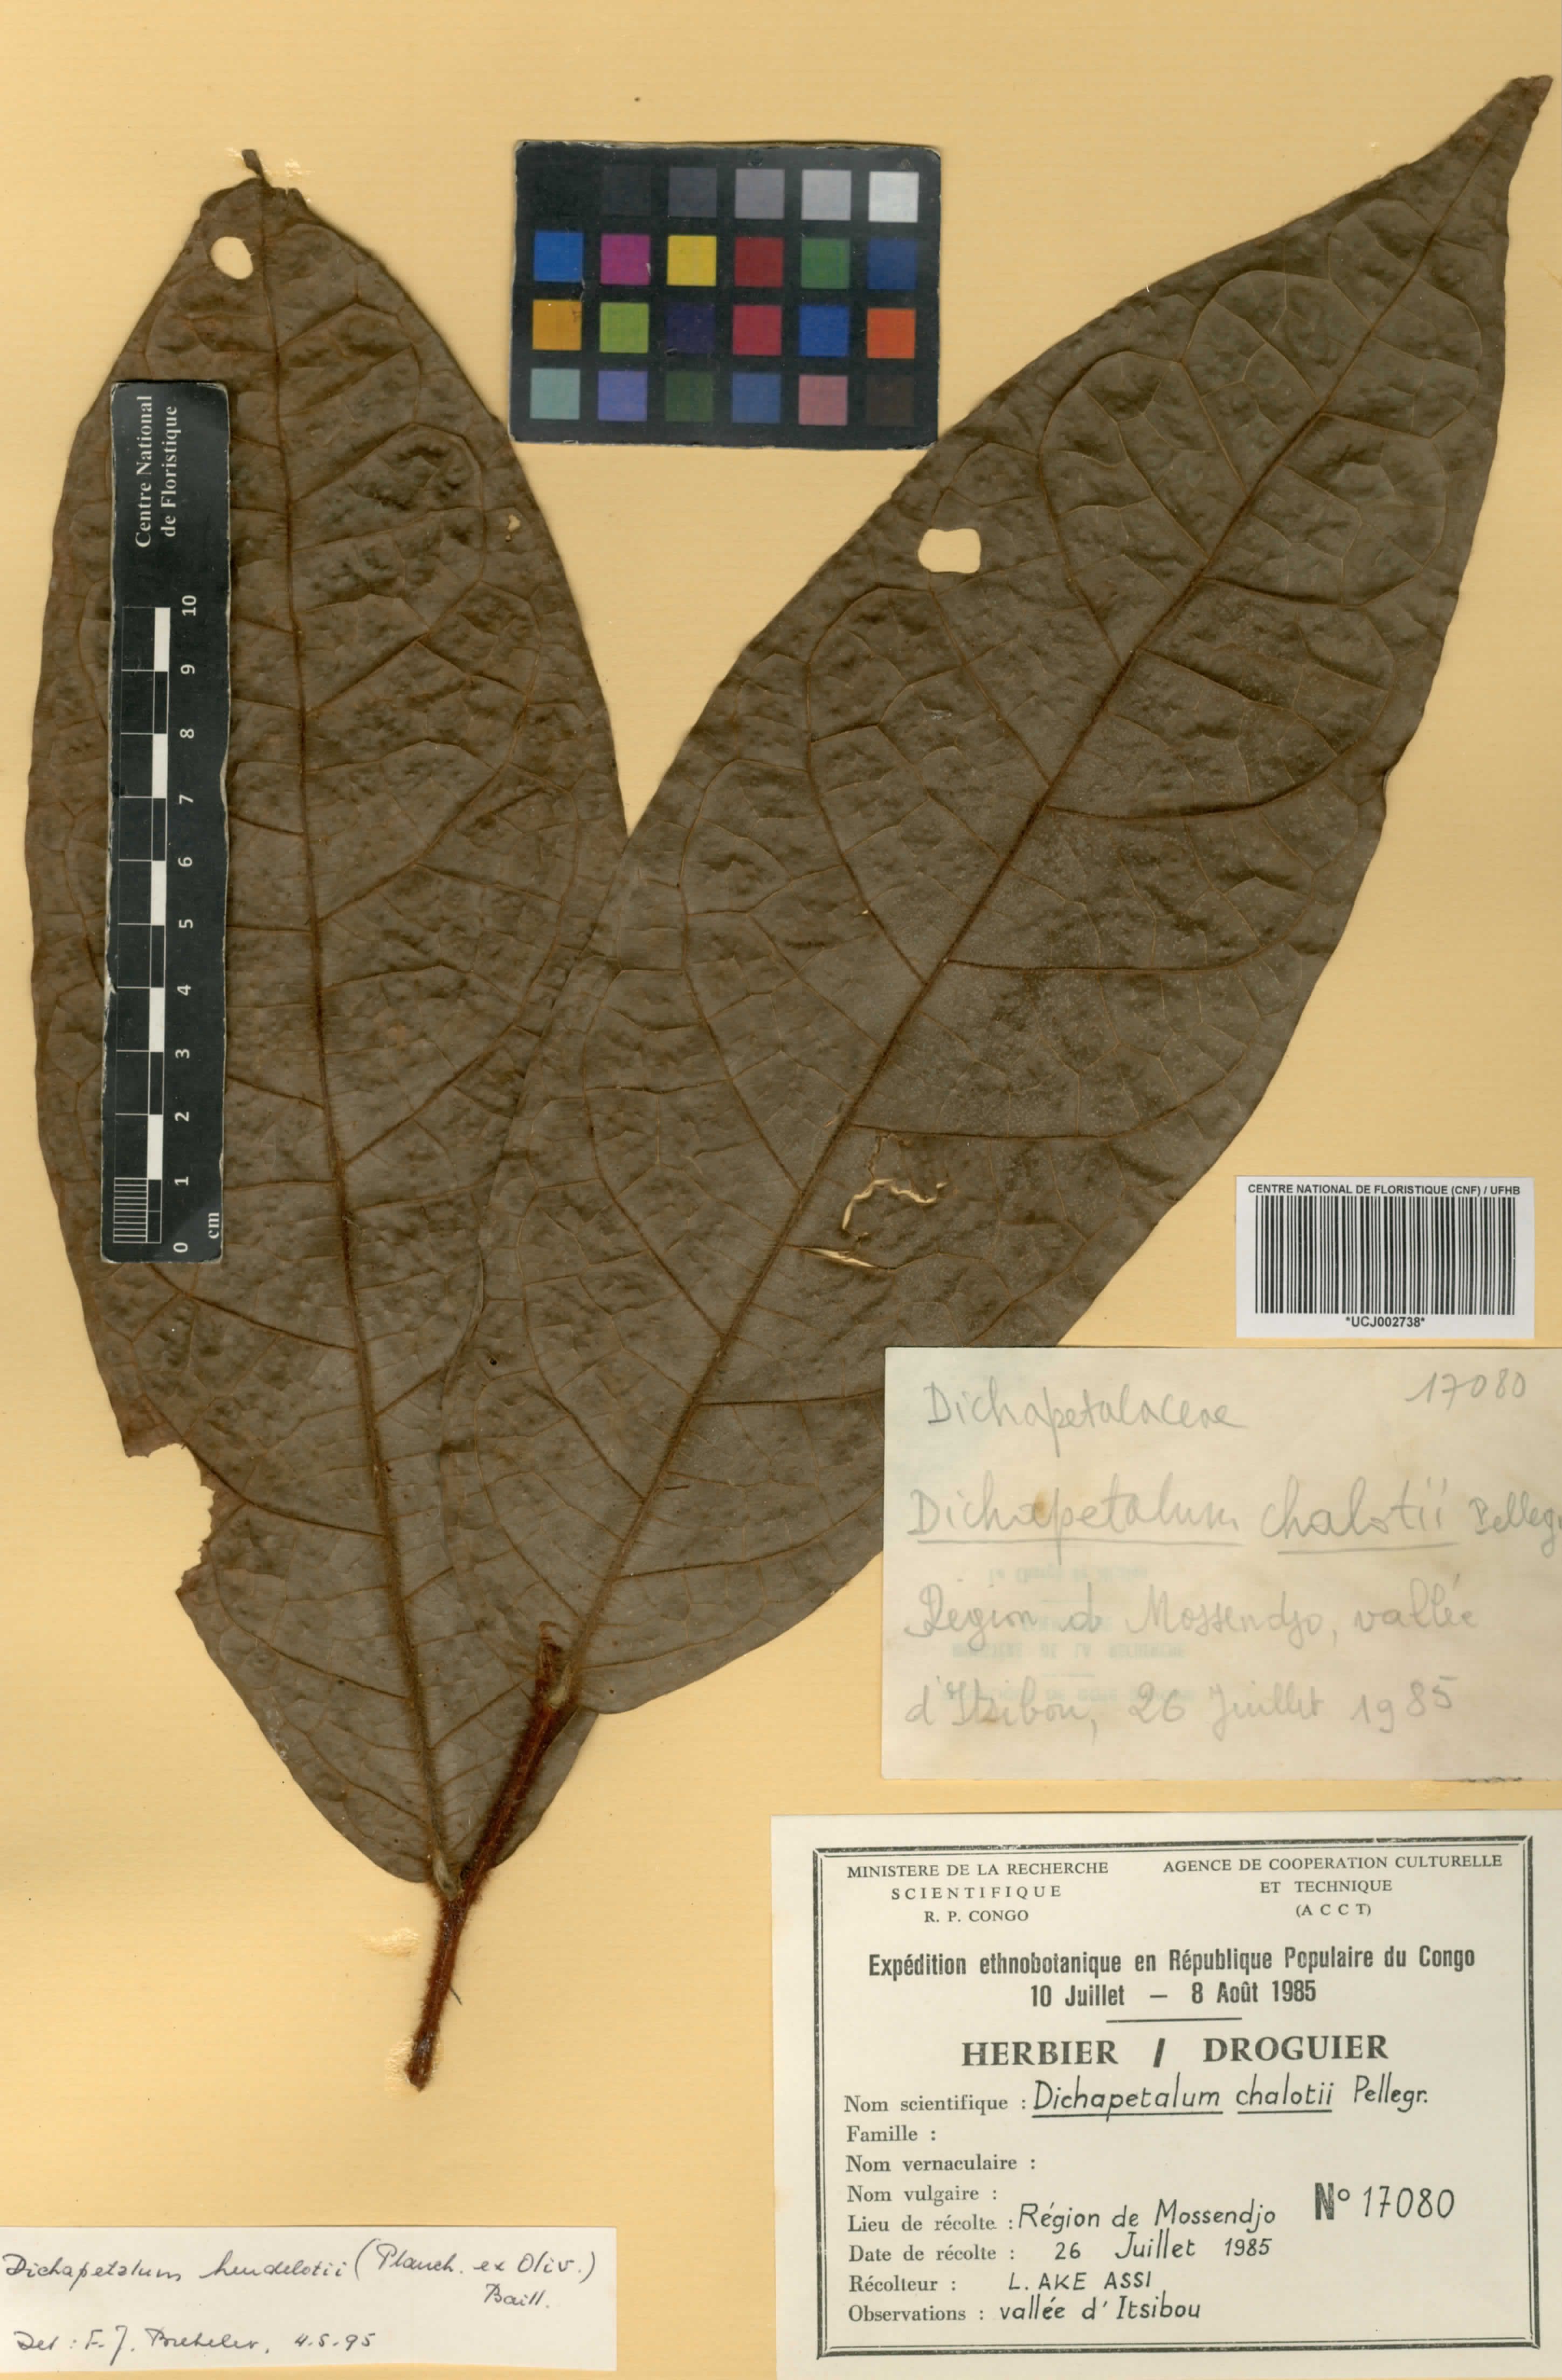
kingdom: Plantae
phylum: Tracheophyta
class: Magnoliopsida
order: Malpighiales
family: Dichapetalaceae
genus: Dichapetalum
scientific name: Dichapetalum chalotii
